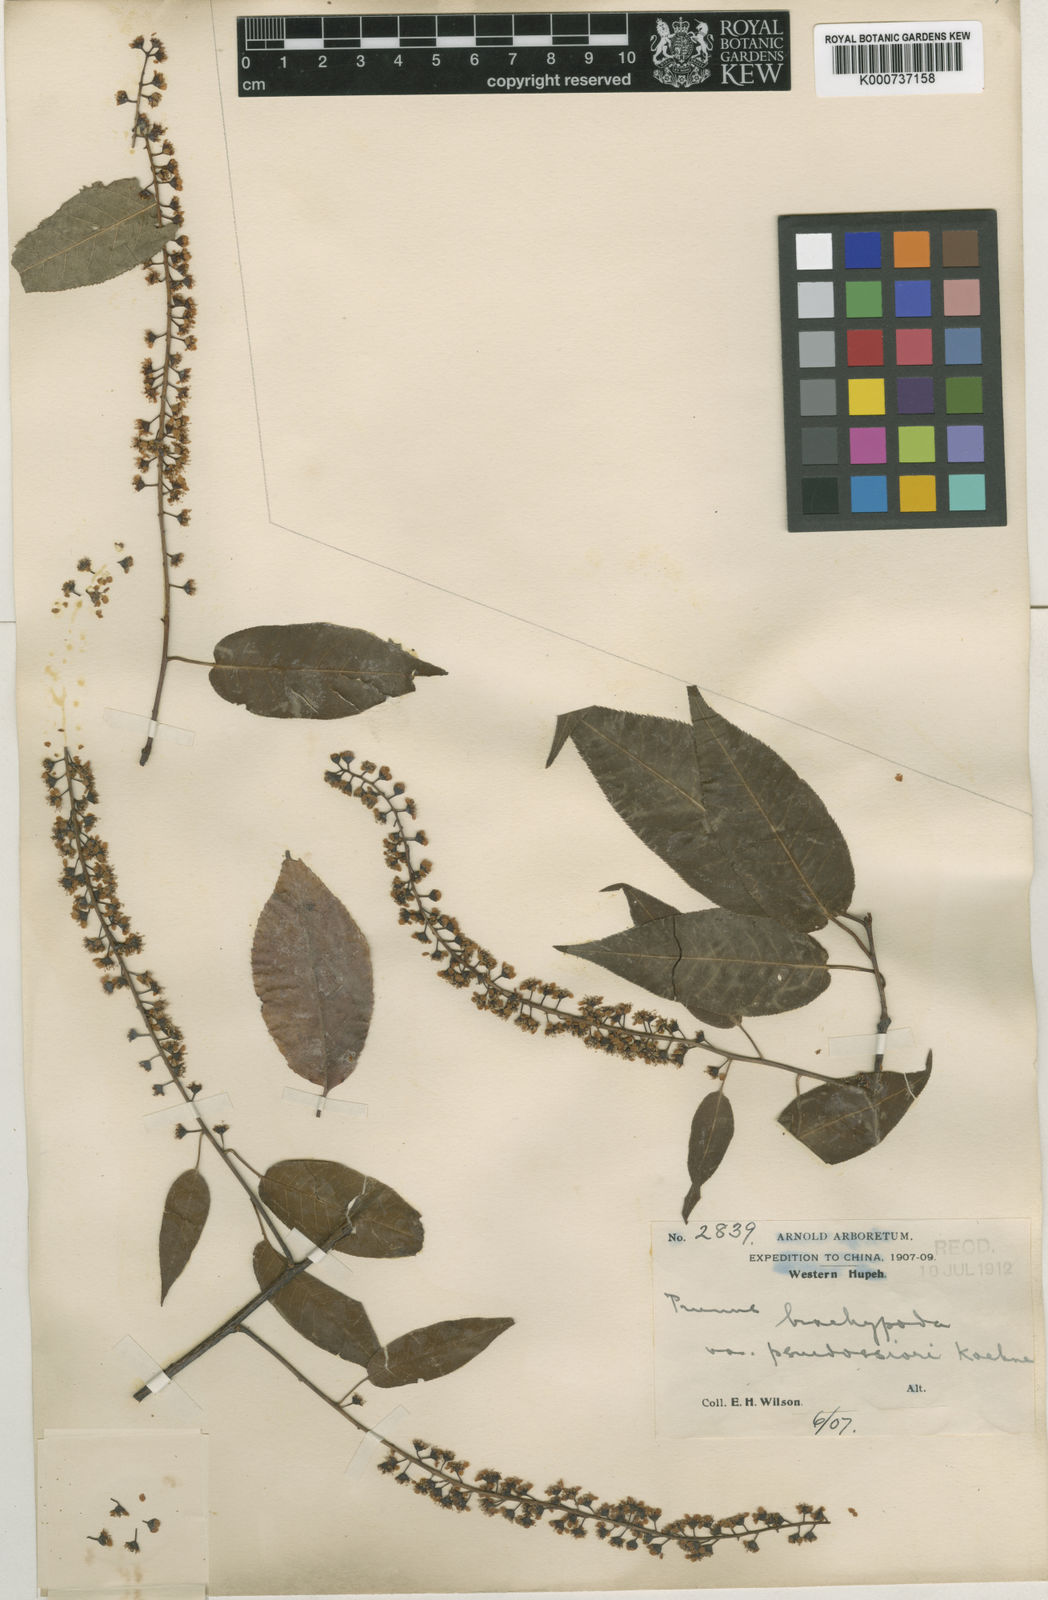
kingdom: Plantae
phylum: Tracheophyta
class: Magnoliopsida
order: Rosales
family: Rosaceae
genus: Prunus
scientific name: Prunus brachypoda
